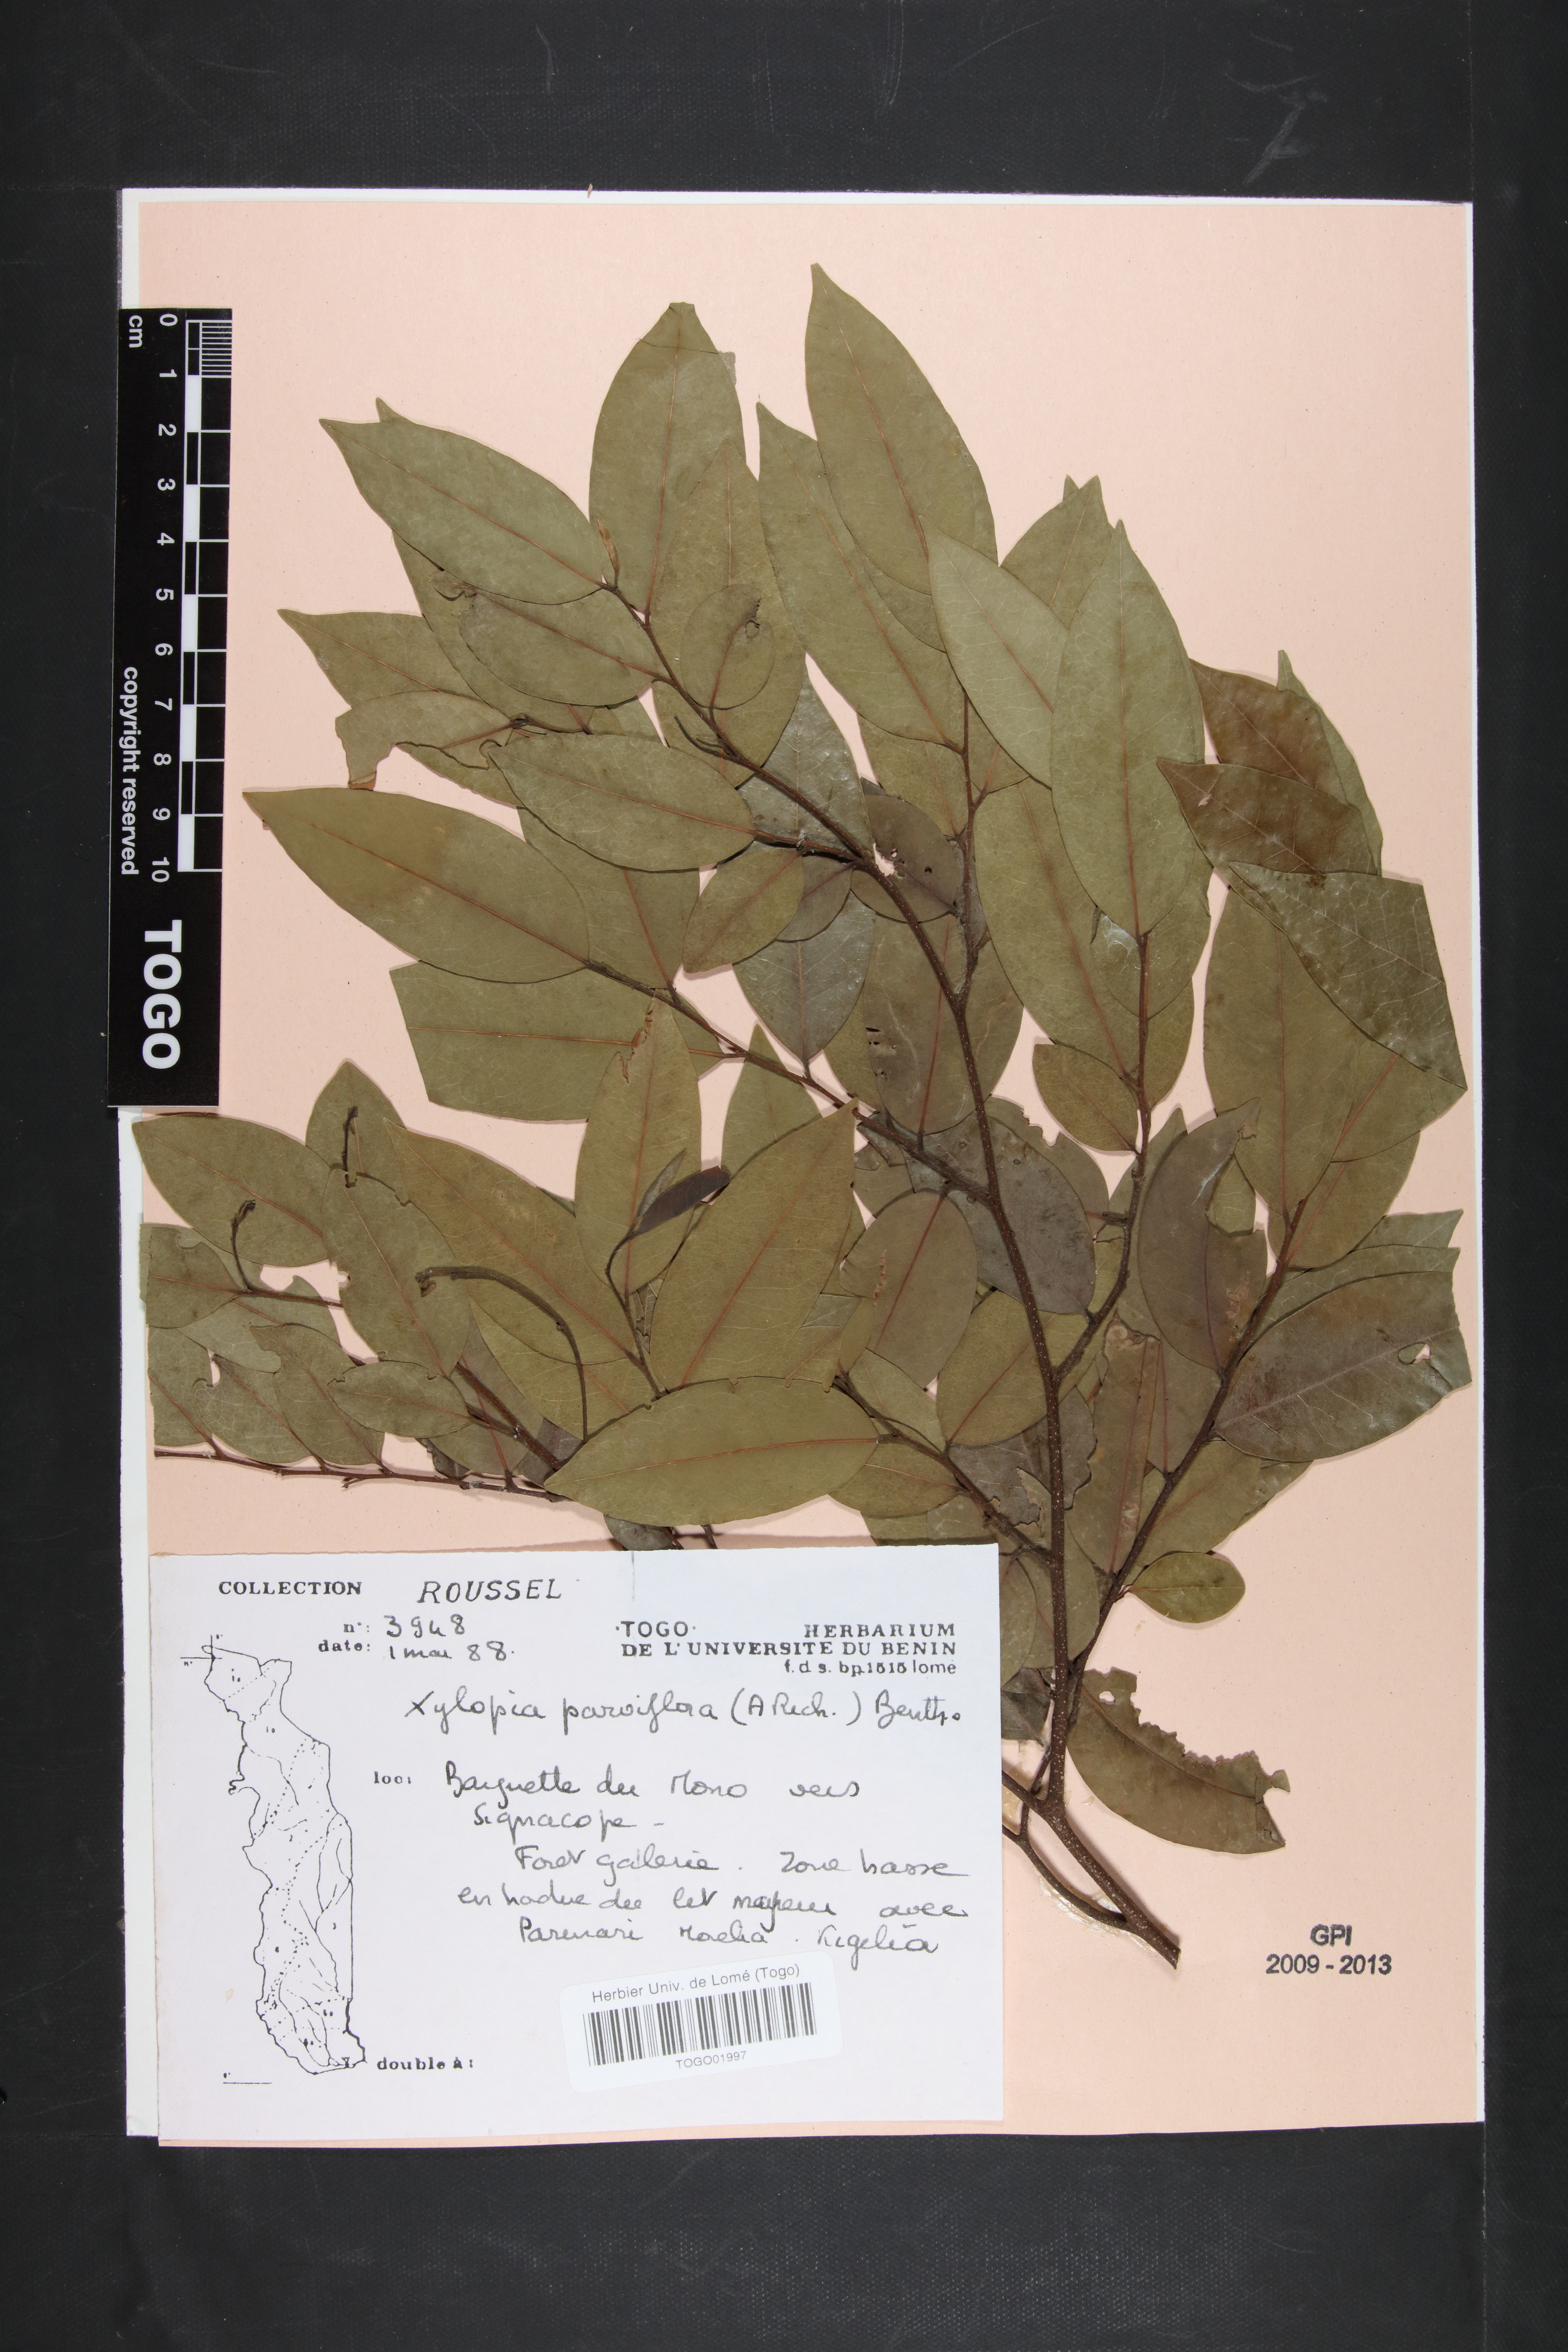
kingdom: Plantae
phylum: Tracheophyta
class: Magnoliopsida
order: Magnoliales
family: Annonaceae
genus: Xylopia
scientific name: Xylopia parviflora
